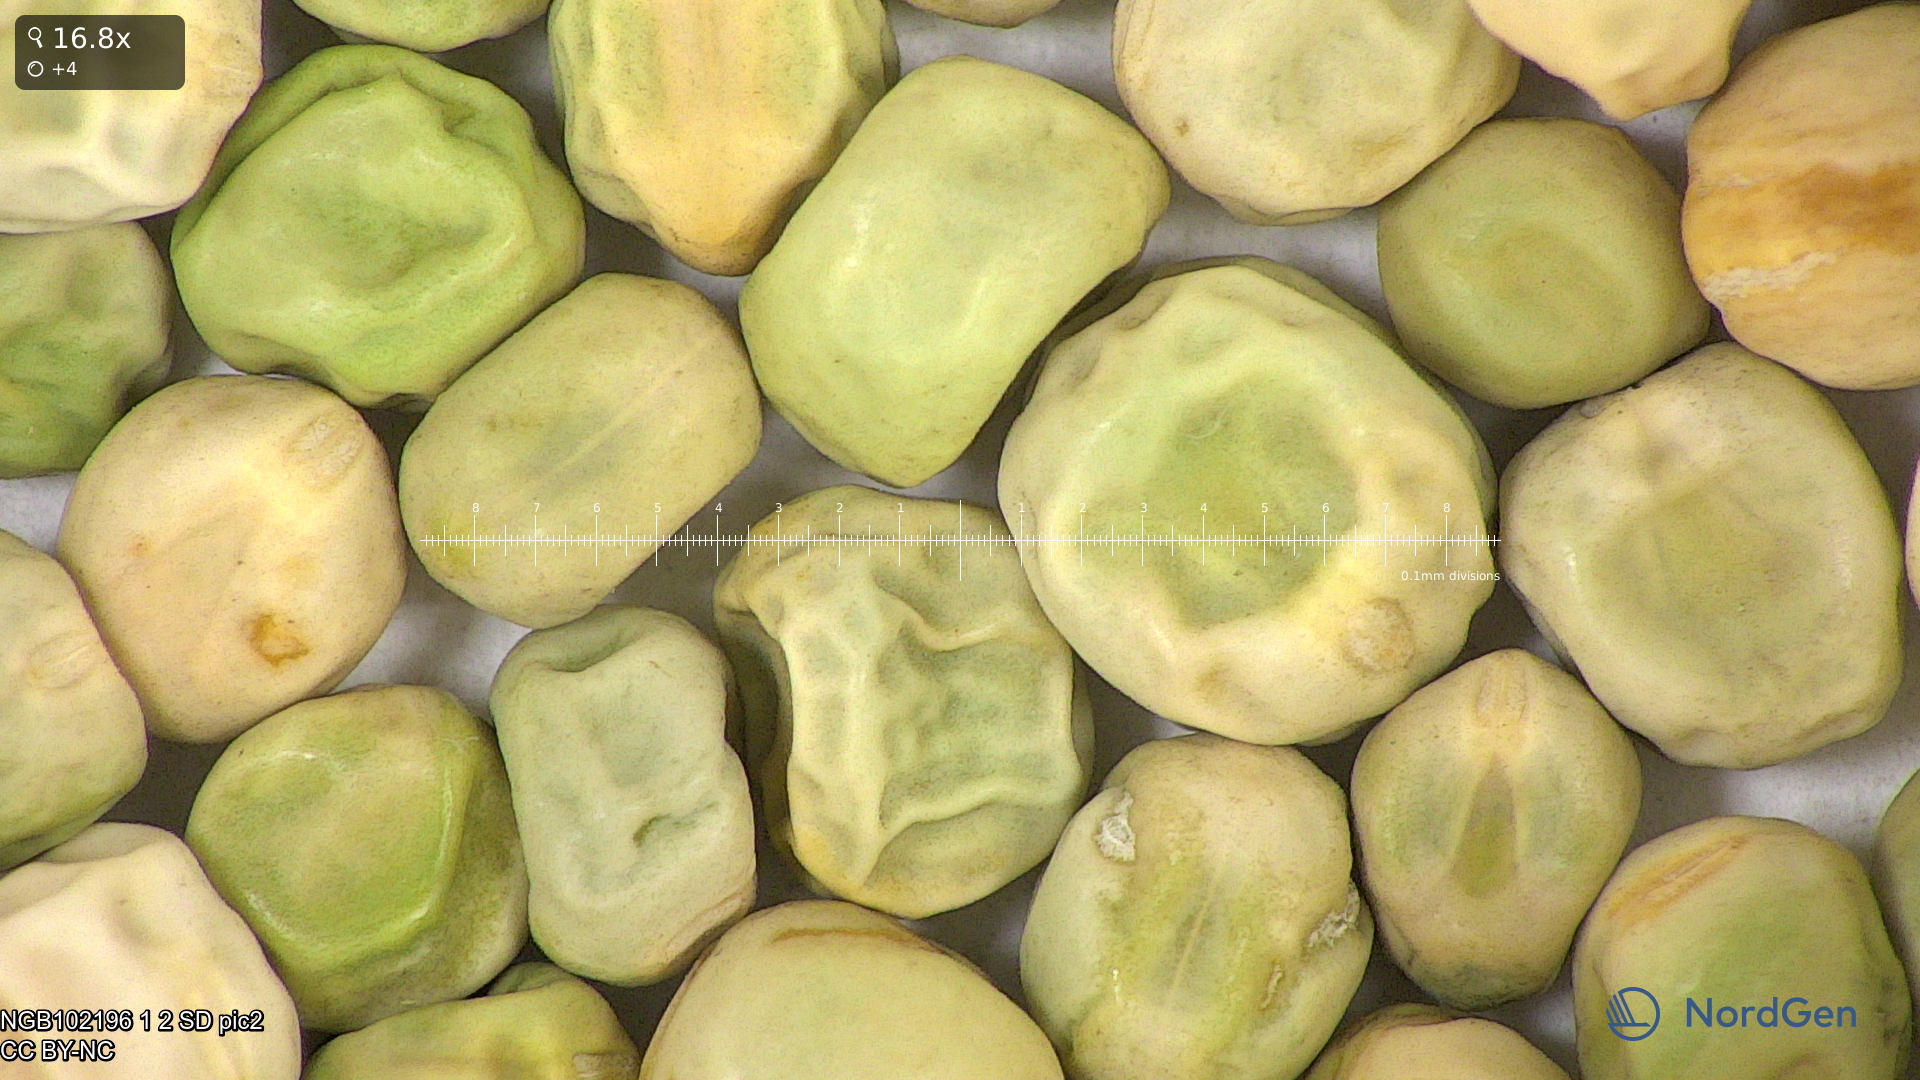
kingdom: Plantae
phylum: Tracheophyta
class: Magnoliopsida
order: Fabales
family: Fabaceae
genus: Lathyrus
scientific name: Lathyrus oleraceus
